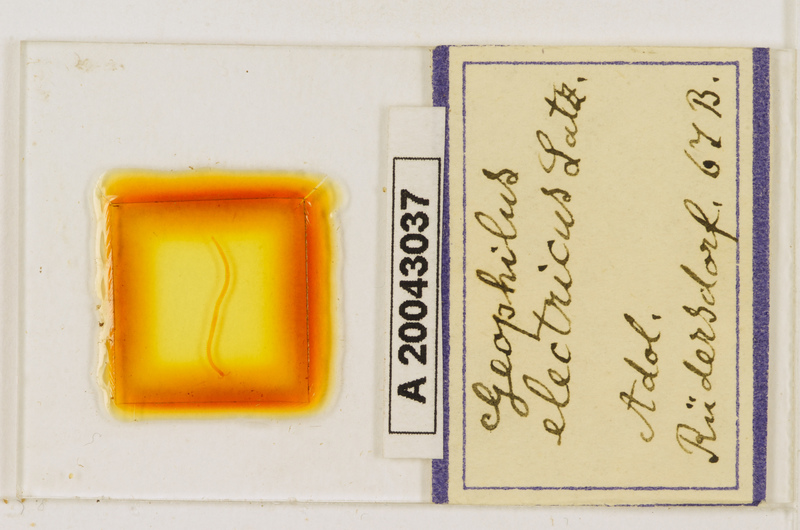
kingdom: Animalia
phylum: Arthropoda
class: Chilopoda
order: Geophilomorpha
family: Geophilidae
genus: Geophilus
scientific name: Geophilus electricus
